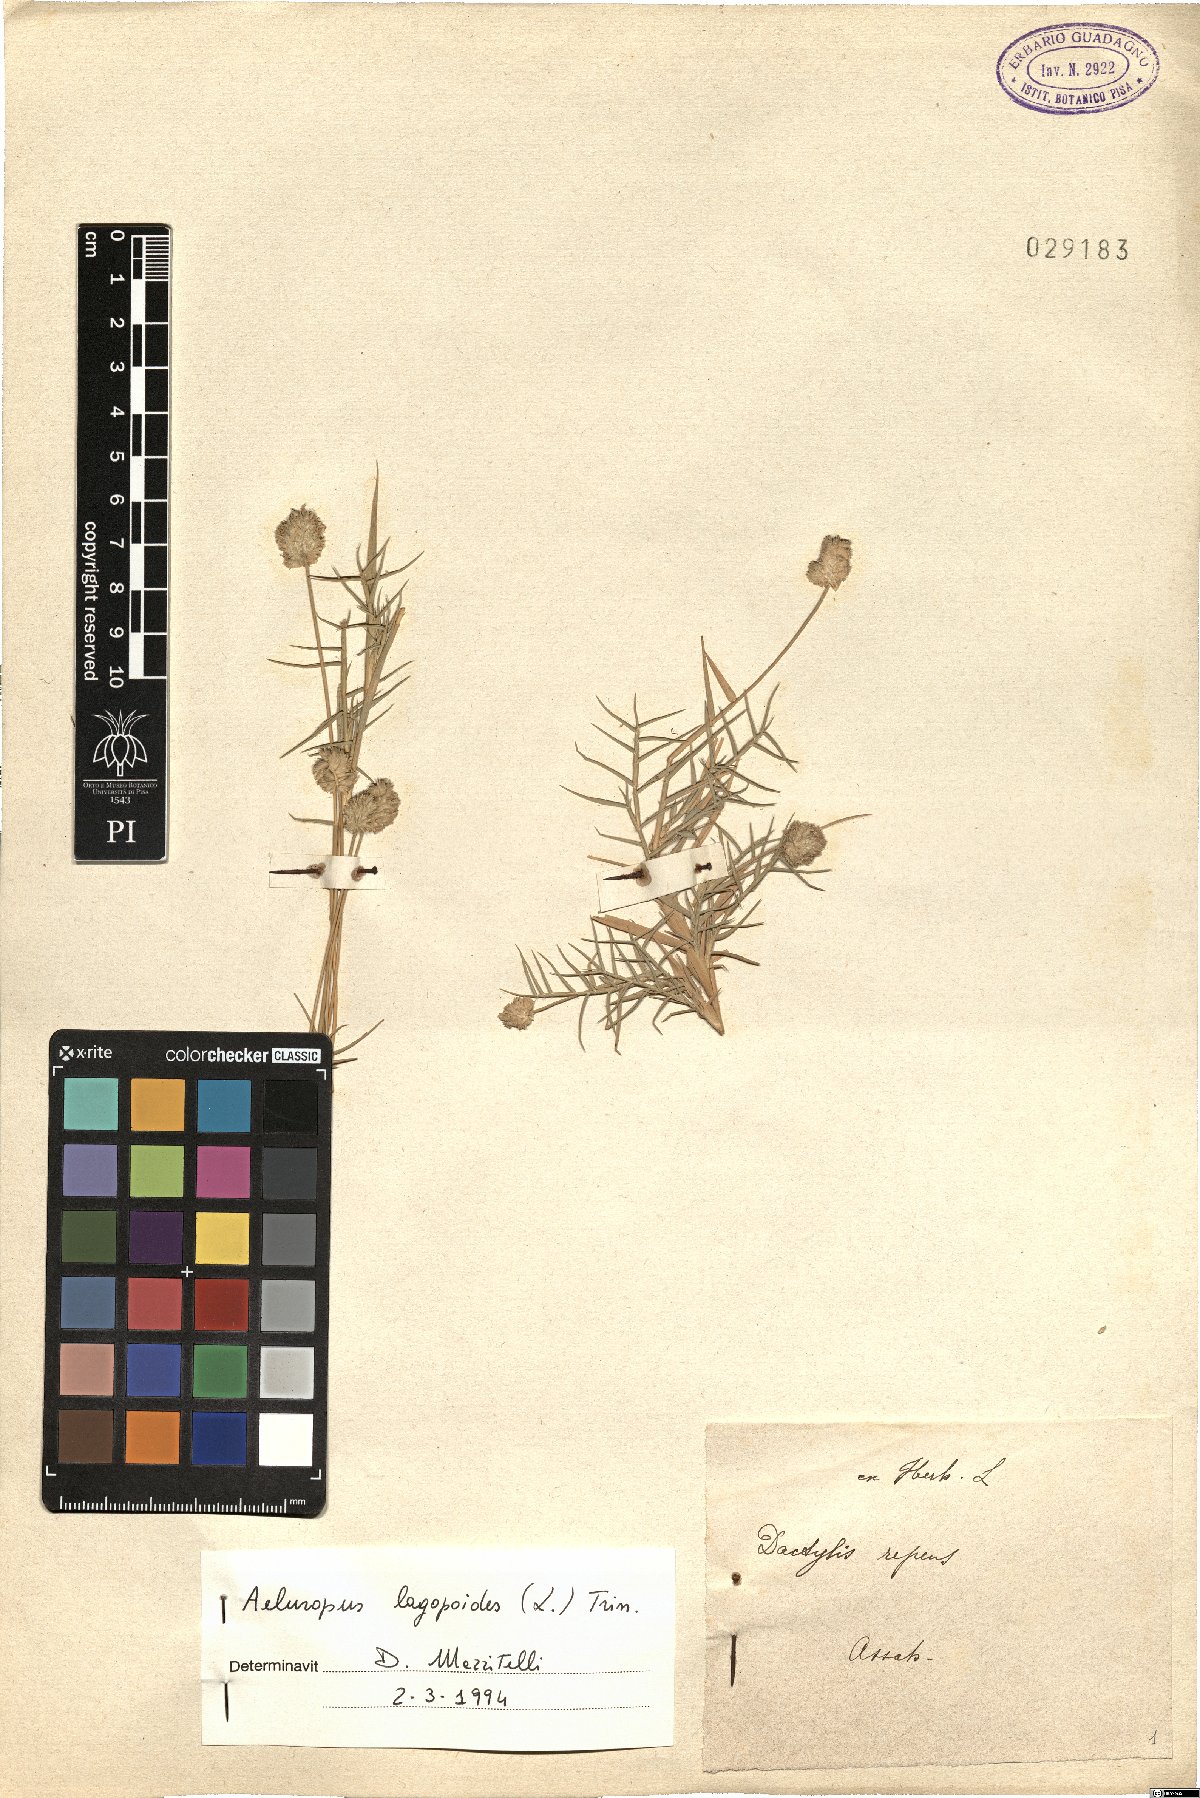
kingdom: Plantae
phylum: Tracheophyta
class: Liliopsida
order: Poales
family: Poaceae
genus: Aeluropus
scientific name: Aeluropus lagopoides
